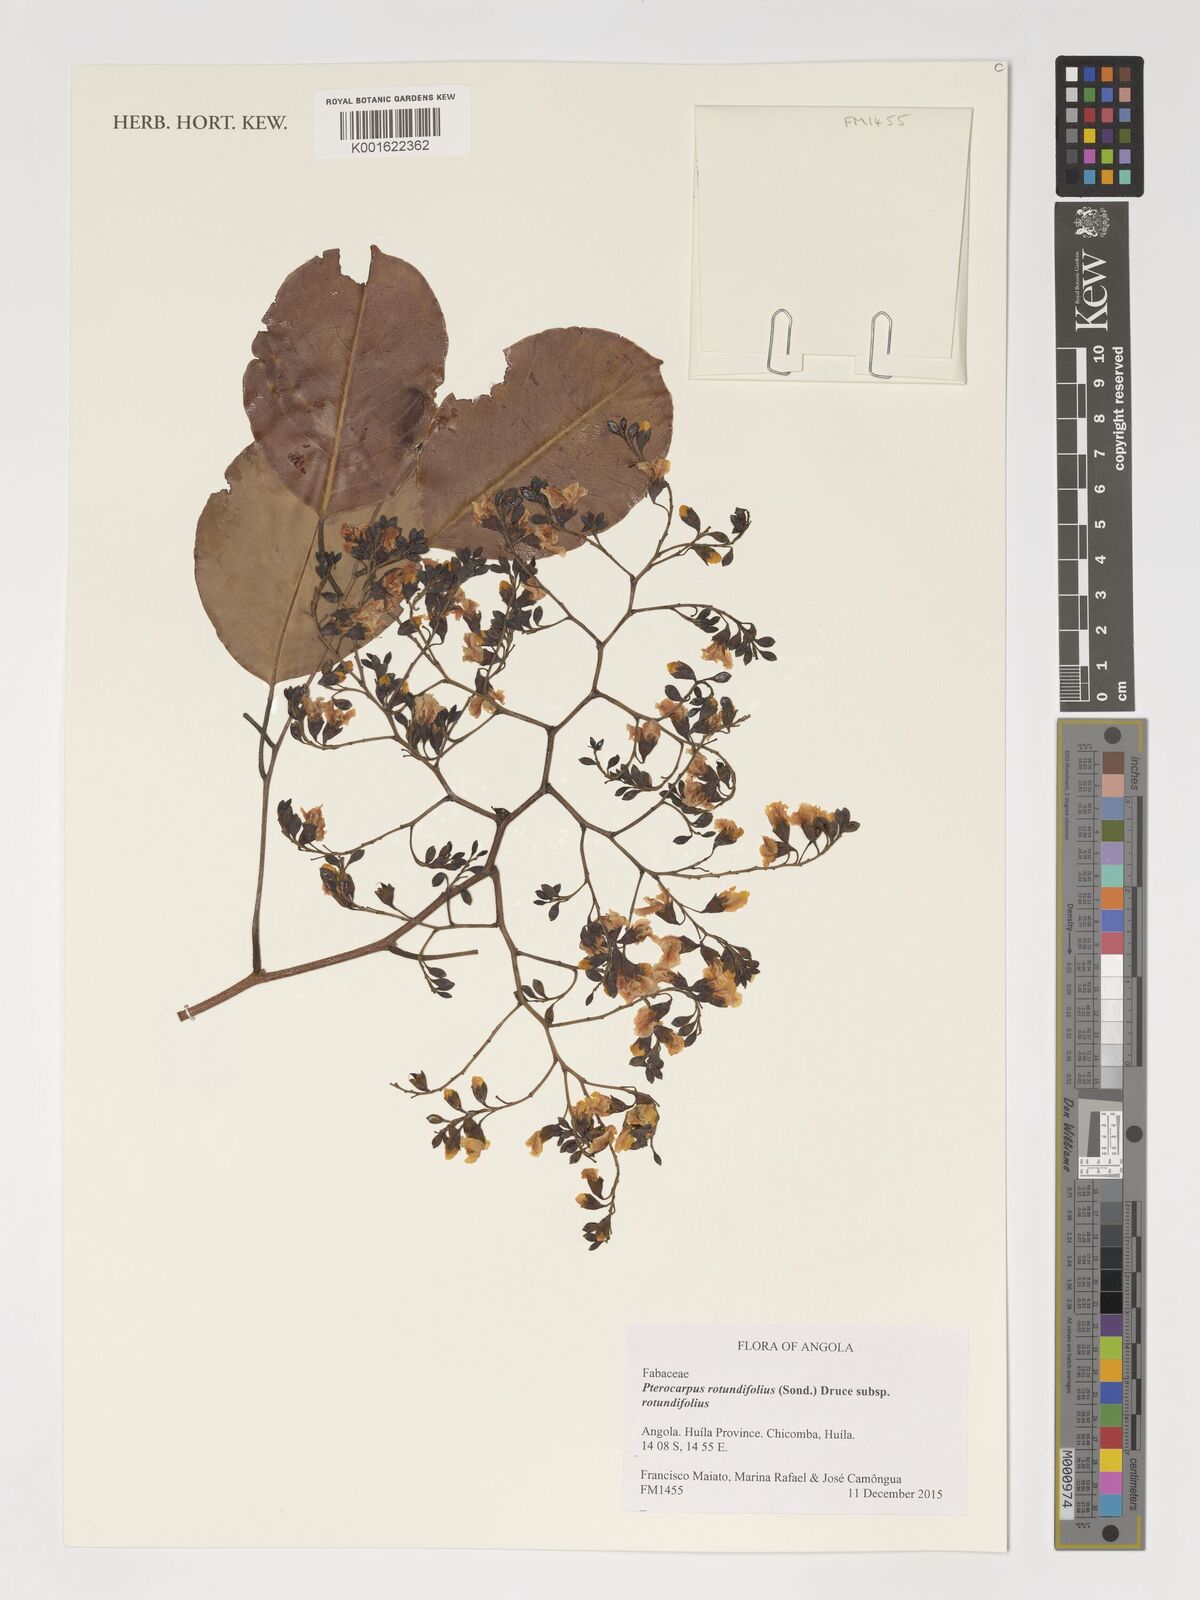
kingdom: Plantae
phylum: Tracheophyta
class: Magnoliopsida
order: Fabales
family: Fabaceae
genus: Pterocarpus
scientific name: Pterocarpus rotundifolius
